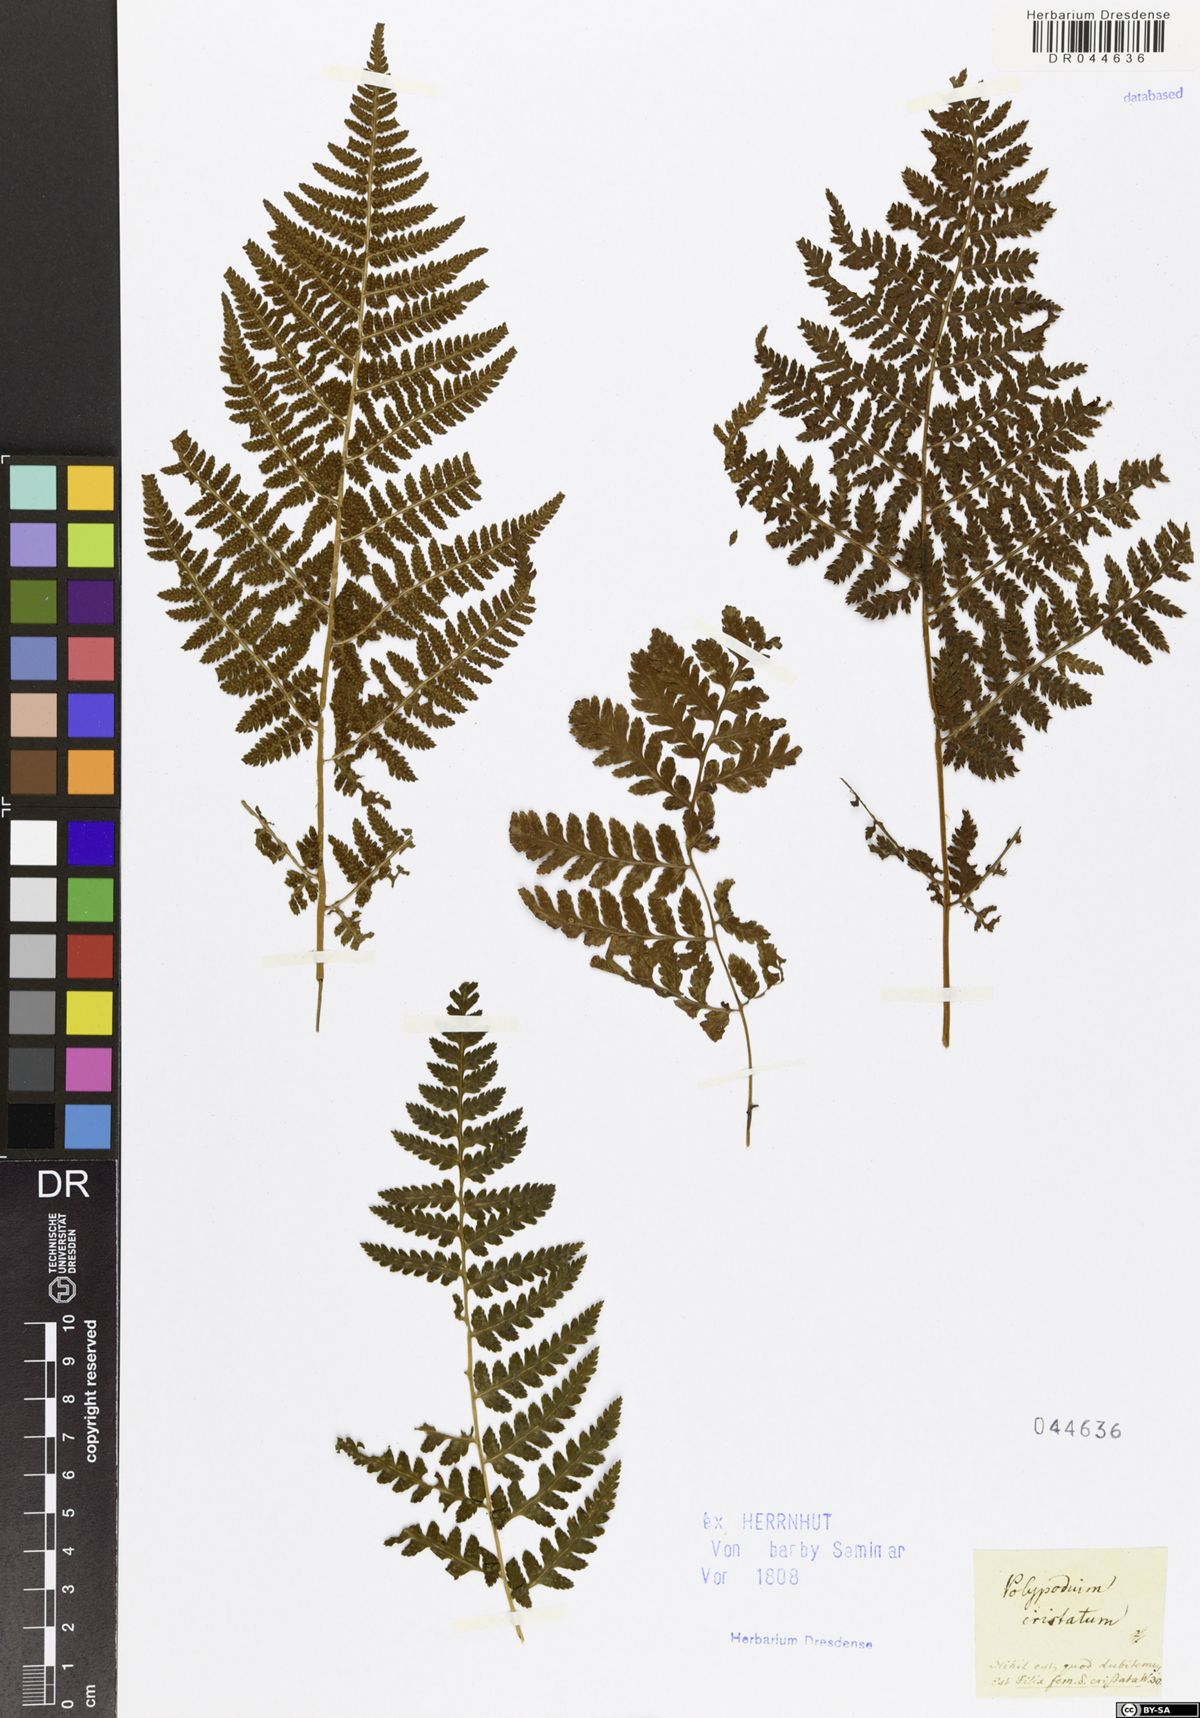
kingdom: Plantae
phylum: Tracheophyta
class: Polypodiopsida
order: Polypodiales
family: Dryopteridaceae
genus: Dryopteris
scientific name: Dryopteris cristata
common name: Crested wood fern
